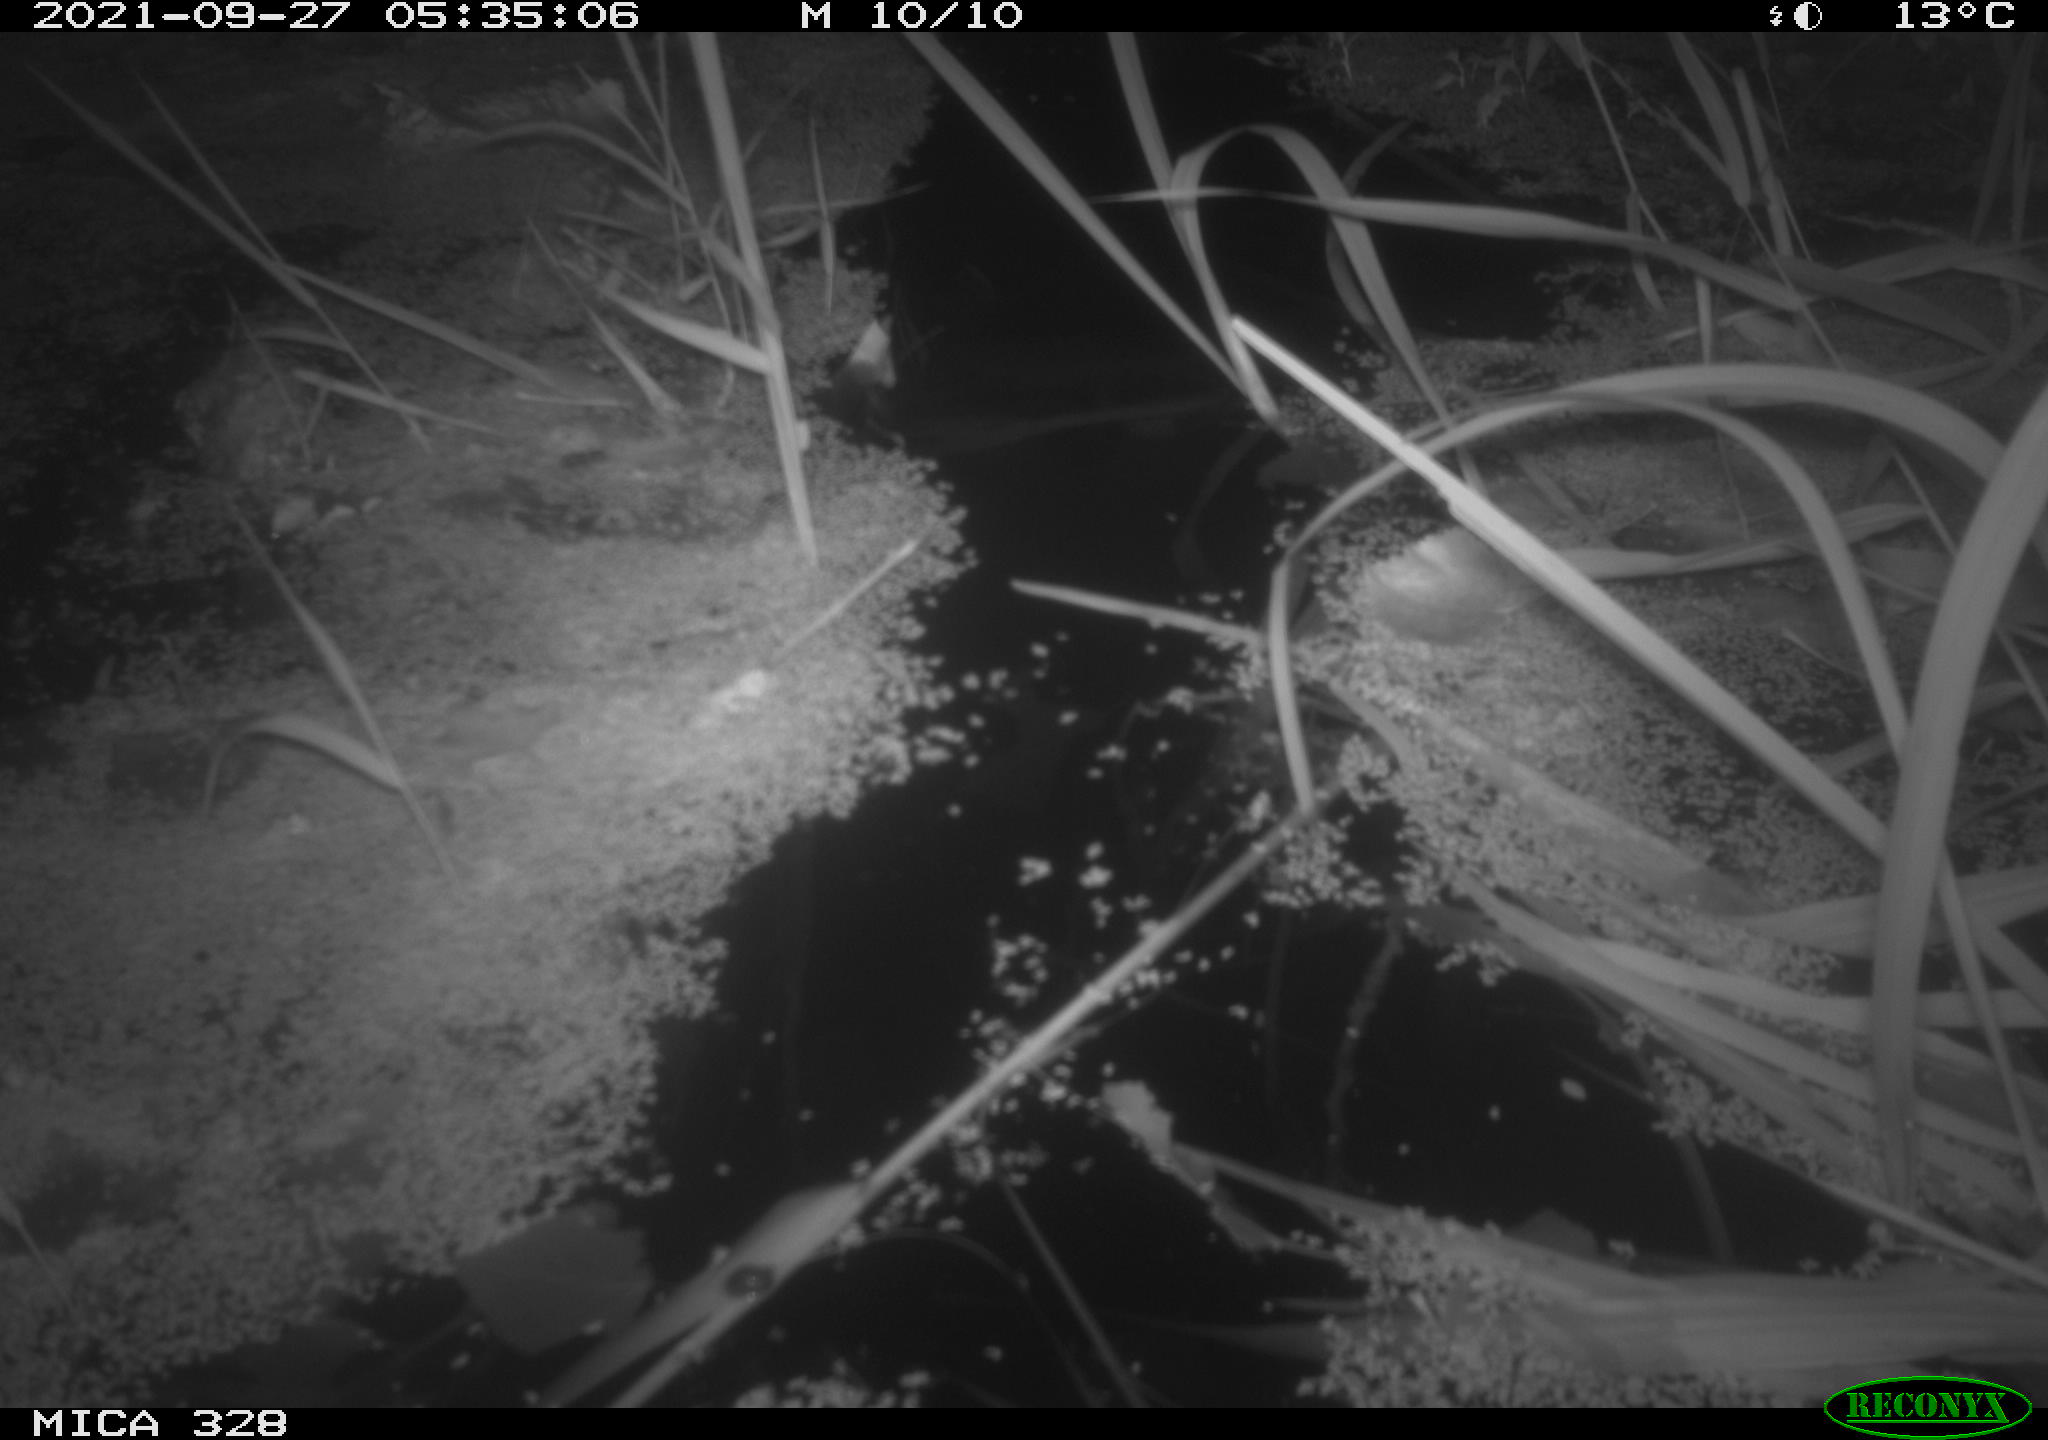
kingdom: Animalia
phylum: Chordata
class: Mammalia
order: Rodentia
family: Cricetidae
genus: Ondatra
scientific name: Ondatra zibethicus
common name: Muskrat
